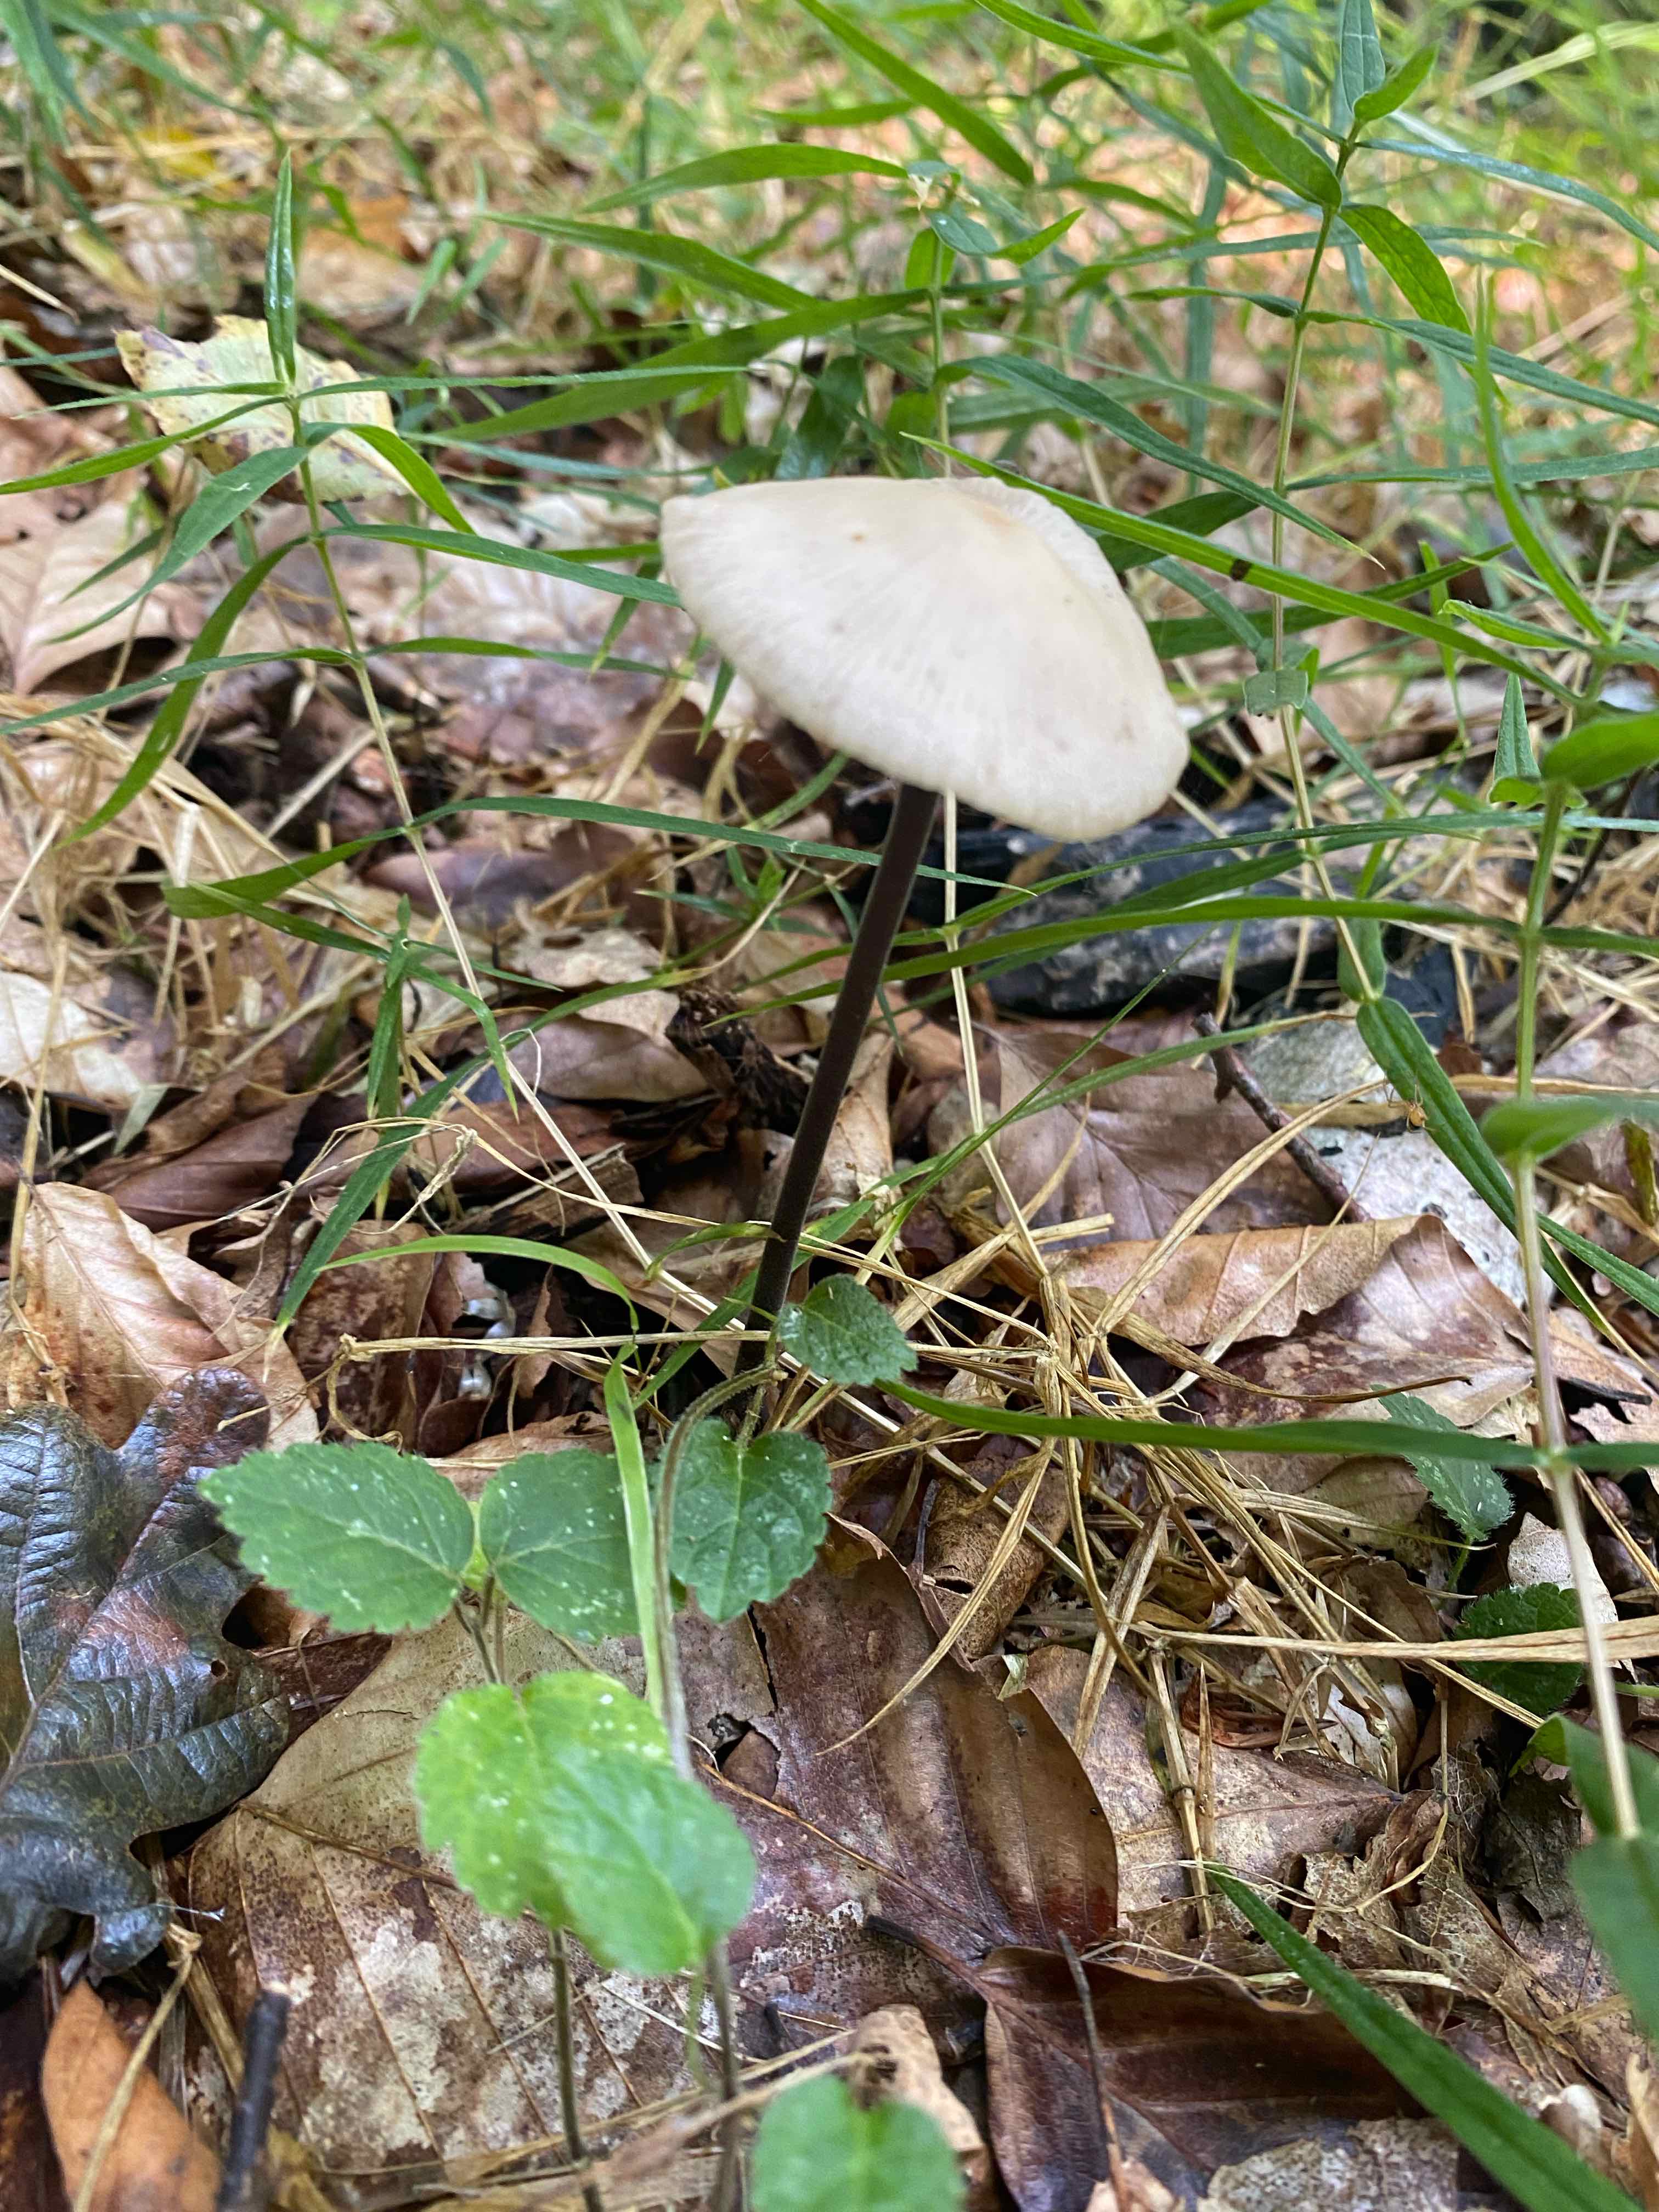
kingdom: Fungi
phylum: Basidiomycota
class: Agaricomycetes
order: Agaricales
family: Omphalotaceae
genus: Mycetinis
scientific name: Mycetinis alliaceus
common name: stor løghat
